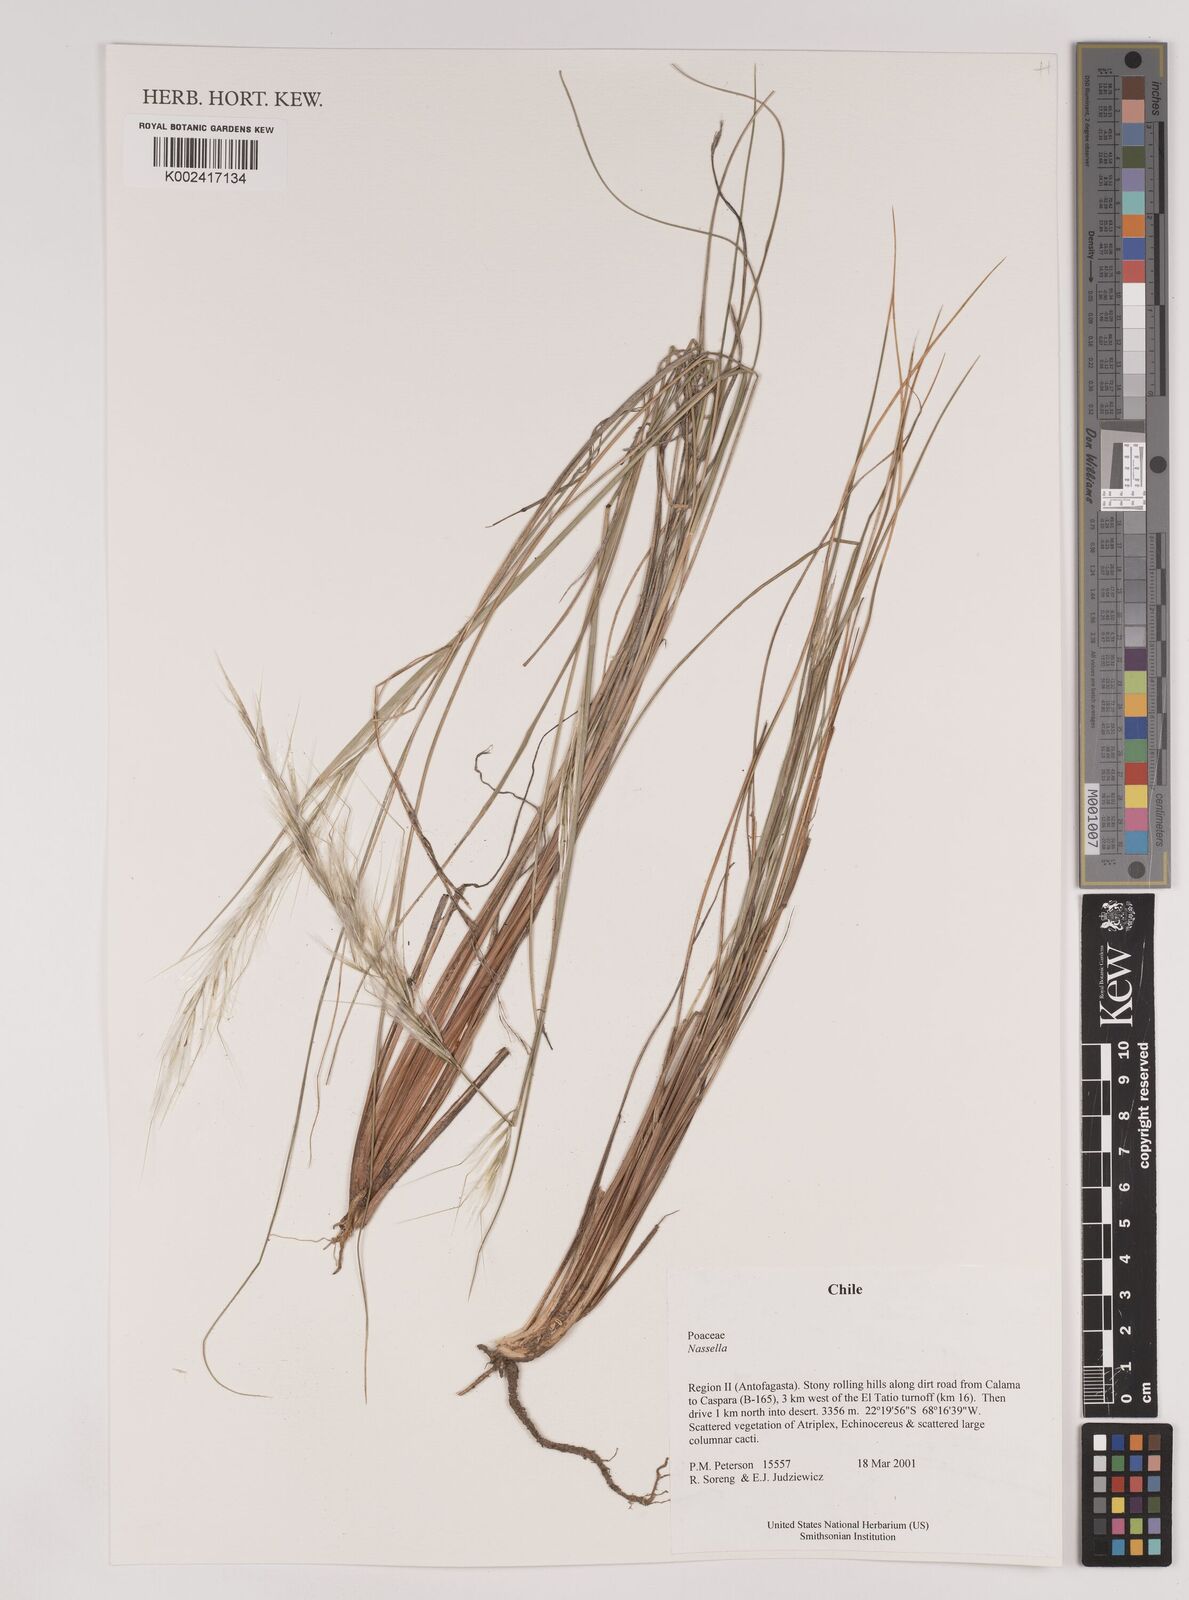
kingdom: Plantae
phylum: Tracheophyta
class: Liliopsida
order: Poales
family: Poaceae
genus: Stipa
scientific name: Stipa
